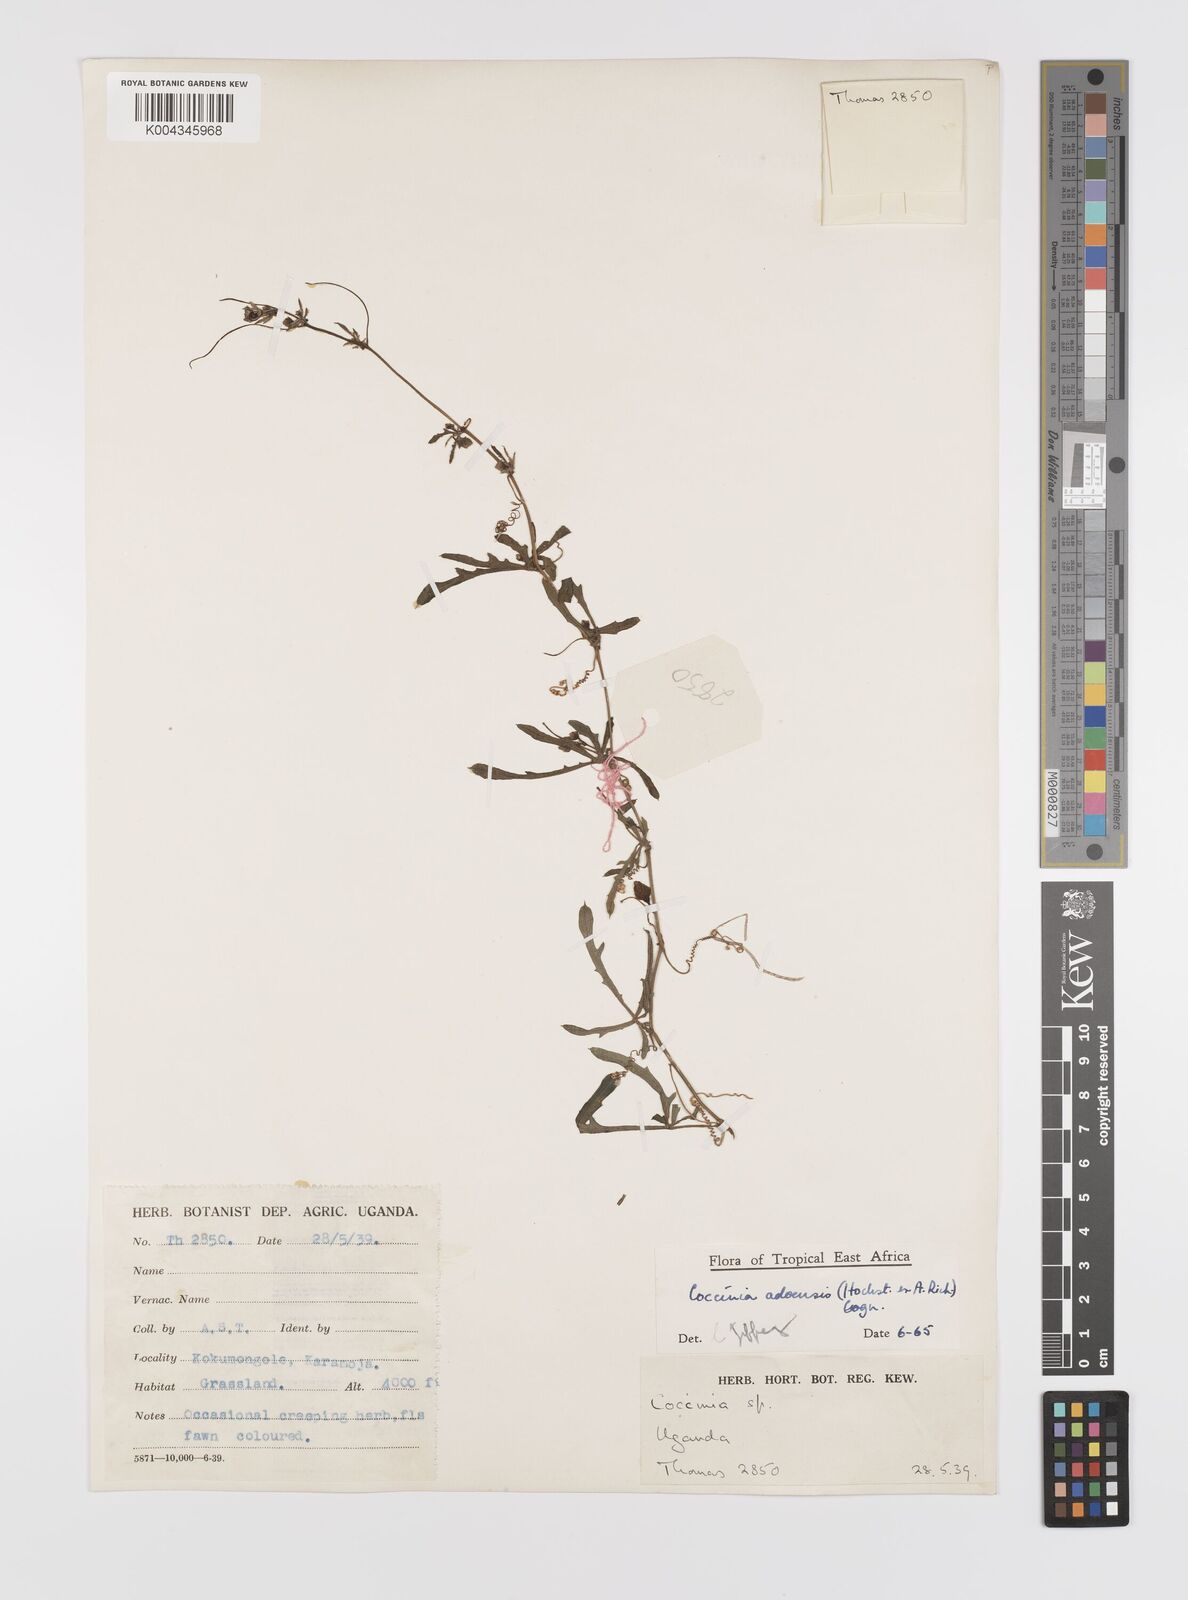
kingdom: Plantae
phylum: Tracheophyta
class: Magnoliopsida
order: Cucurbitales
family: Cucurbitaceae
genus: Coccinia
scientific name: Coccinia adoensis
